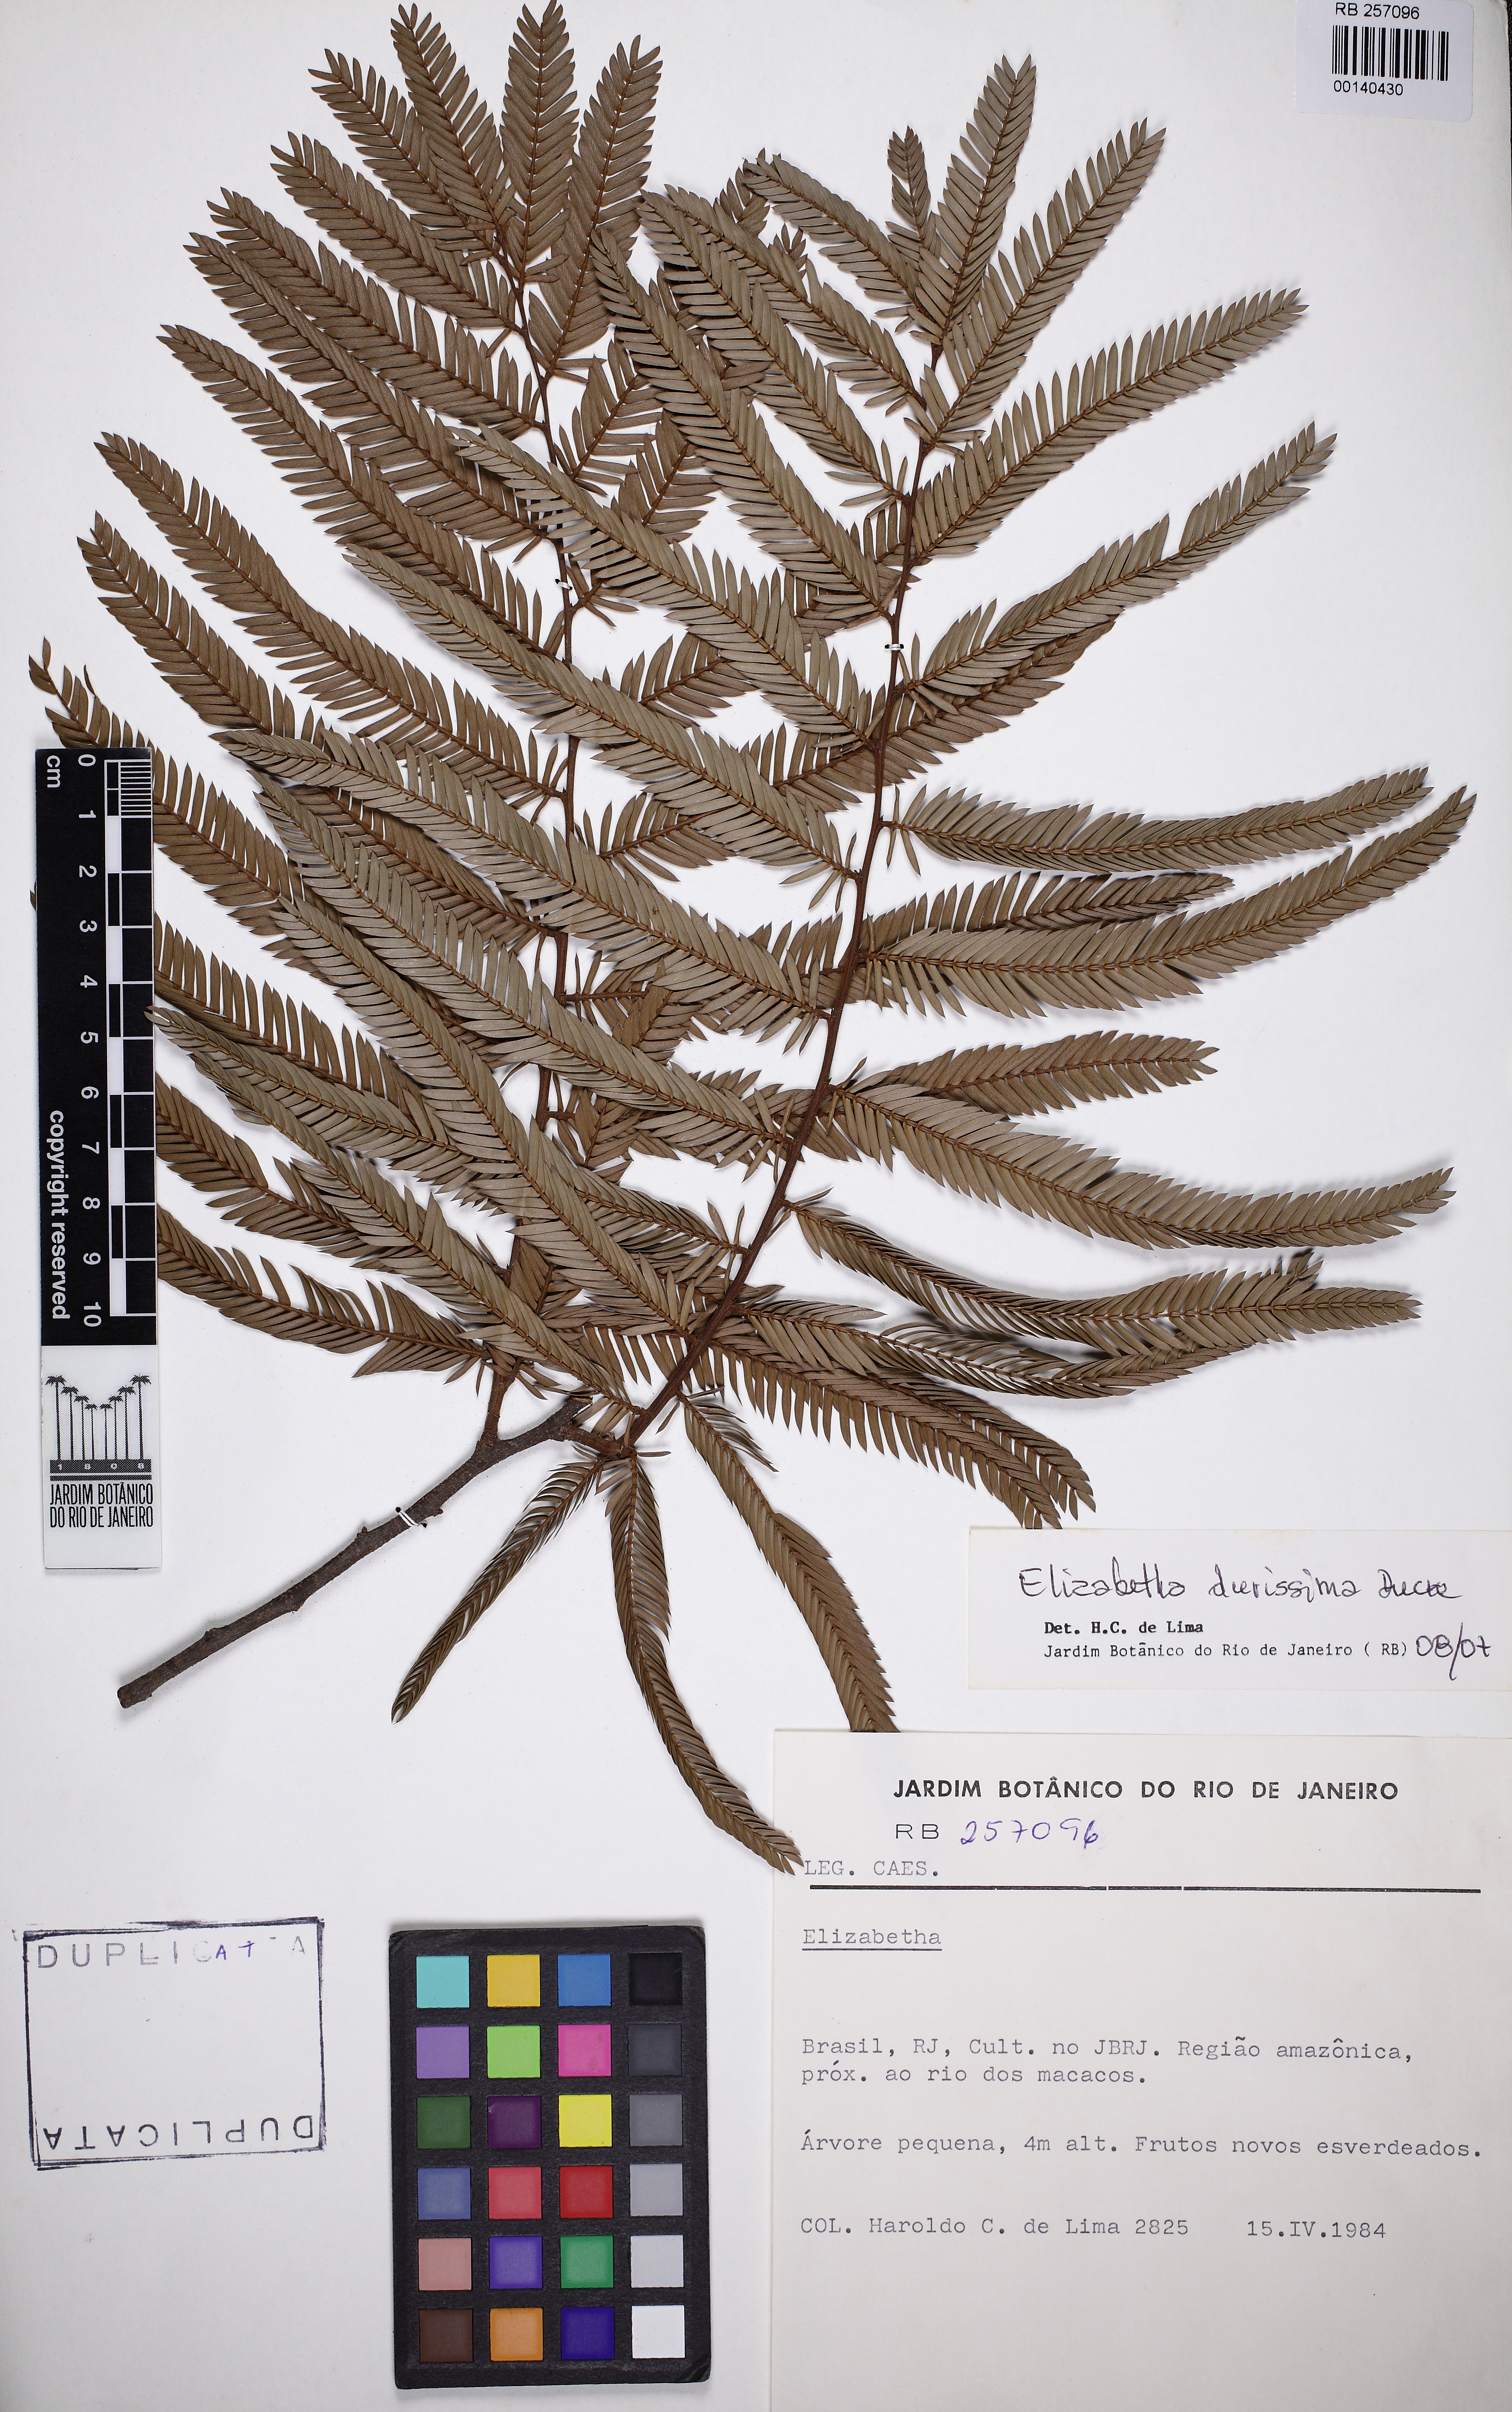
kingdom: Plantae
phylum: Tracheophyta
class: Magnoliopsida
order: Fabales
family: Fabaceae
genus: Paloue
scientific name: Paloue durissima
